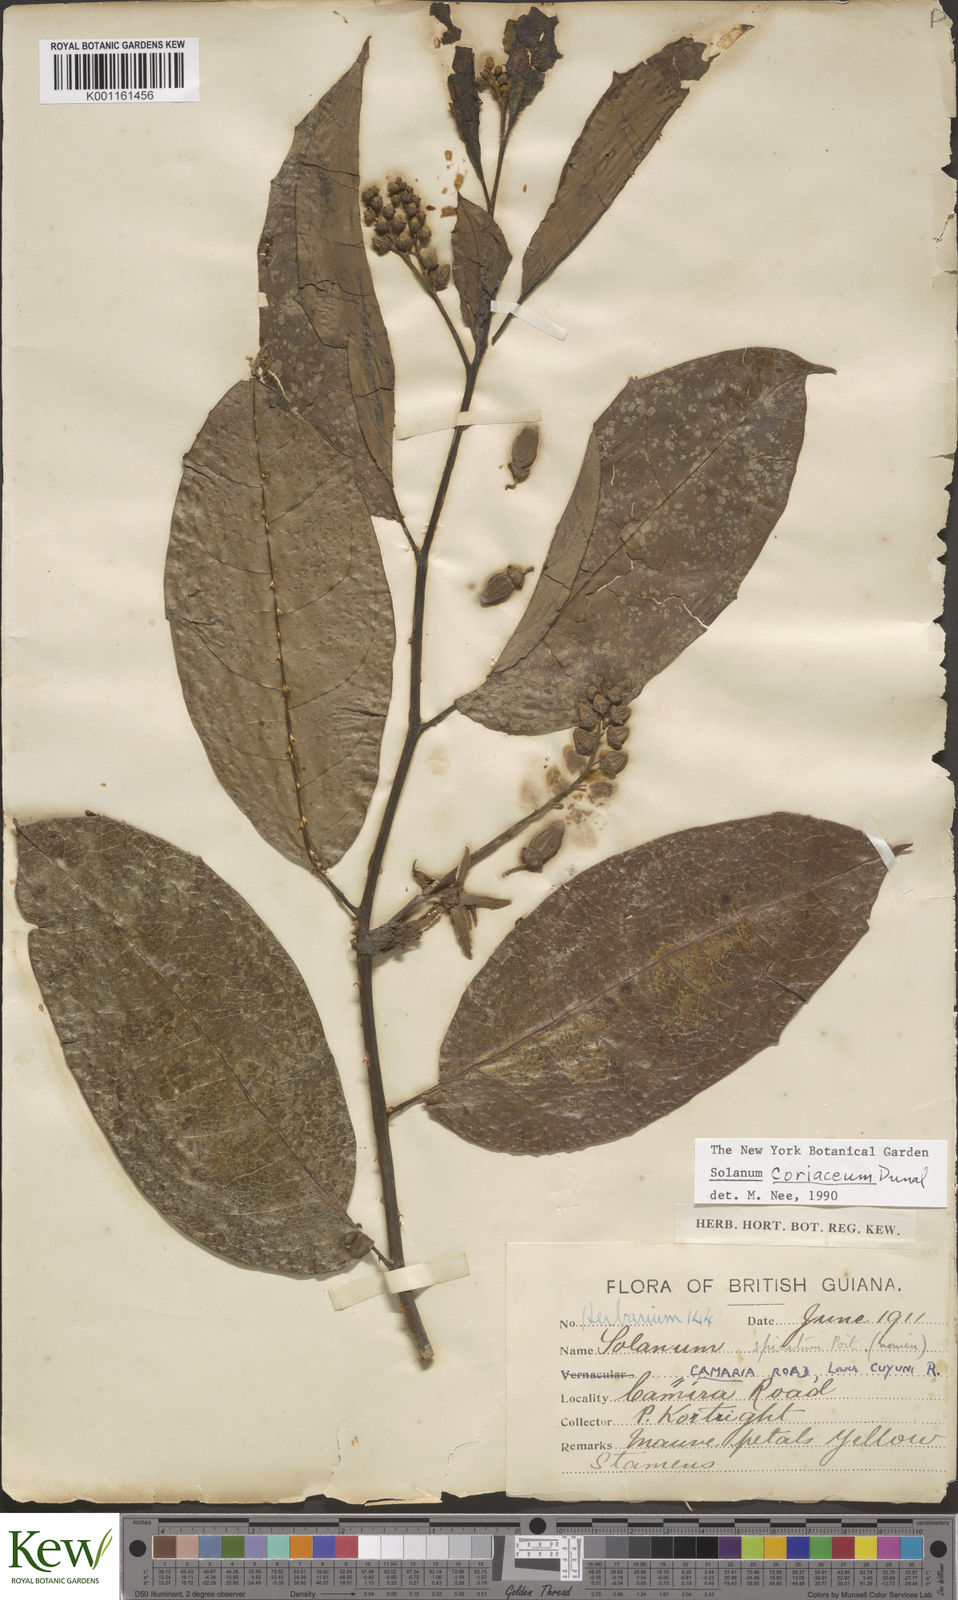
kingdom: Plantae
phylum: Tracheophyta
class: Magnoliopsida
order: Solanales
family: Solanaceae
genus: Solanum
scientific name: Solanum coriaceum
